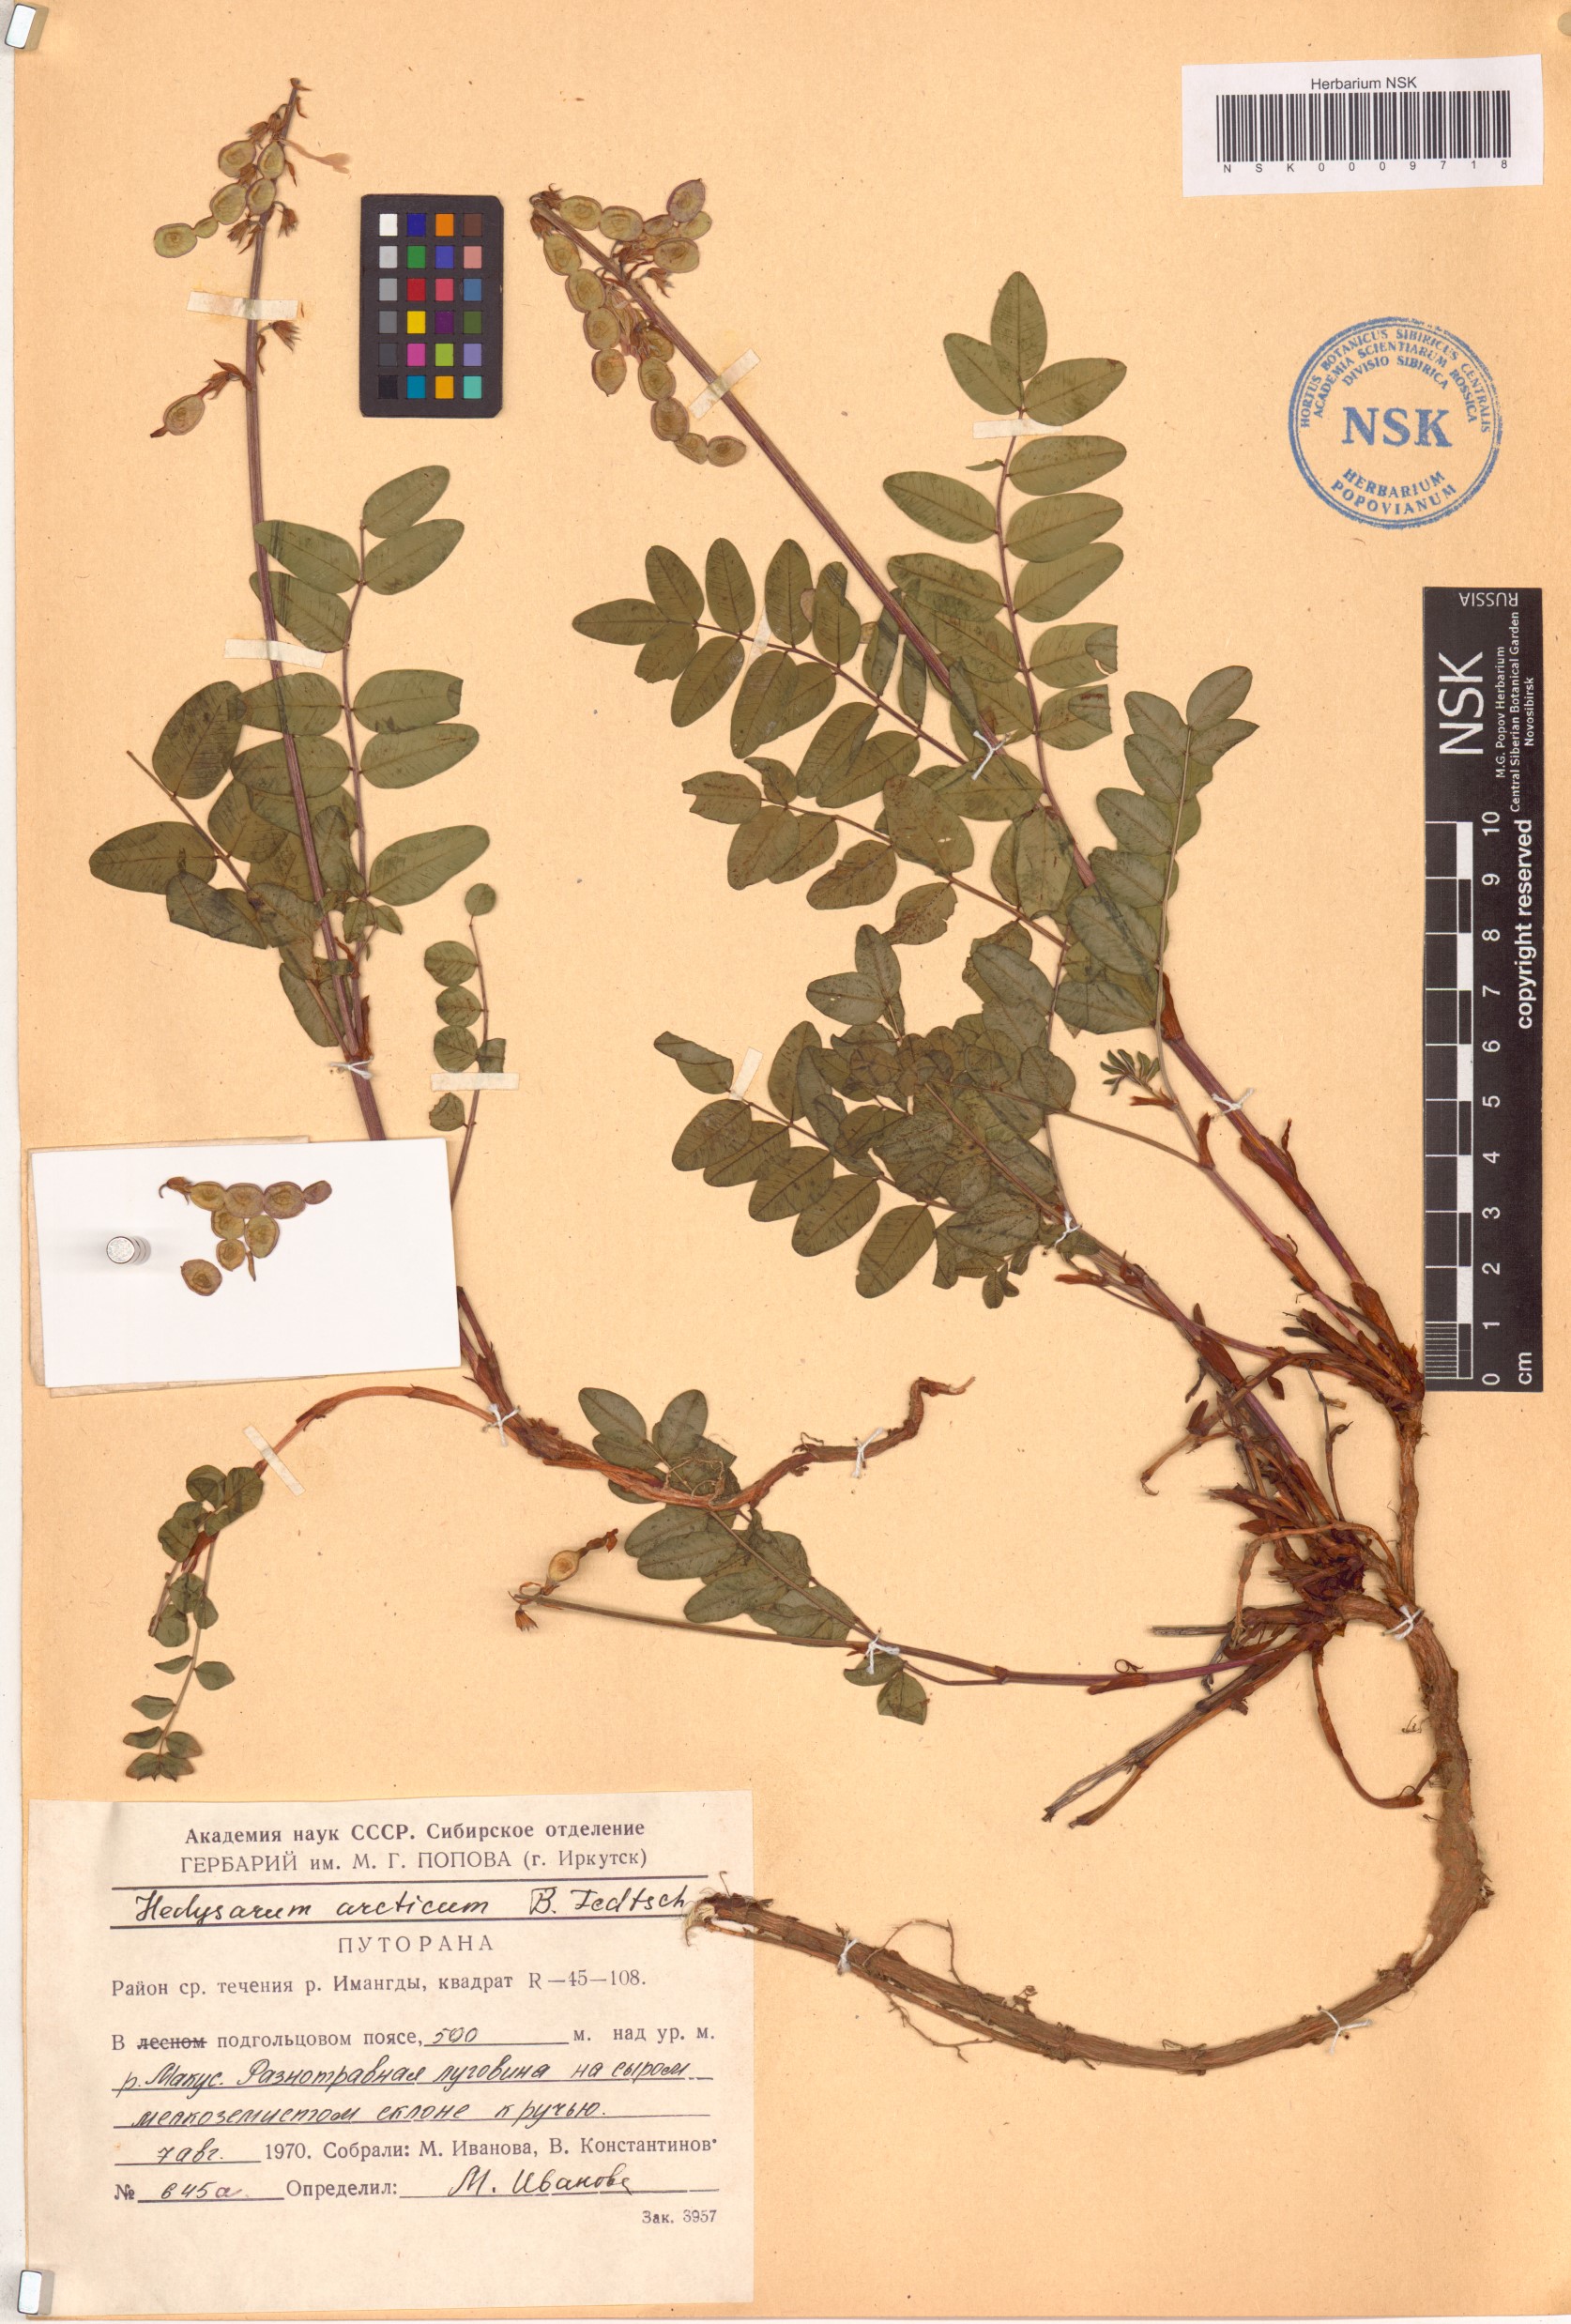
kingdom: Plantae
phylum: Tracheophyta
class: Magnoliopsida
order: Fabales
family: Fabaceae
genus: Hedysarum
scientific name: Hedysarum hedysaroides
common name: Alpine french-honeysuckle
